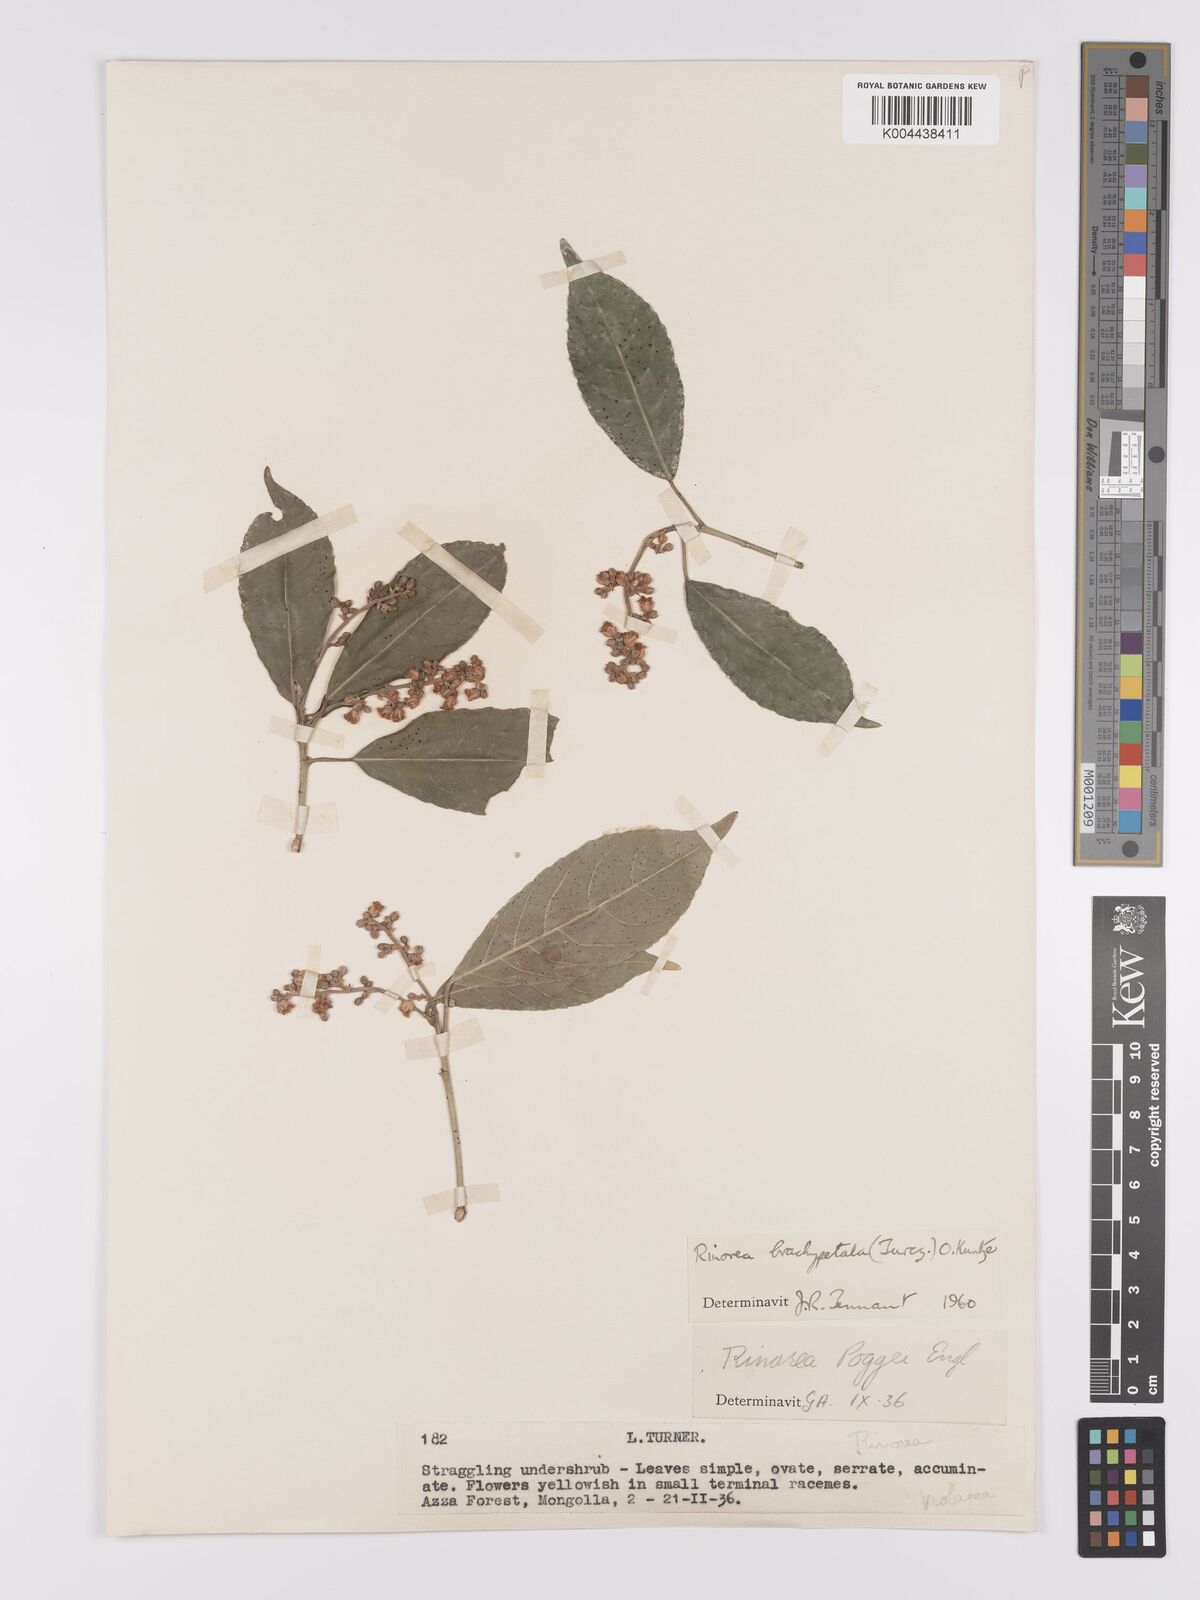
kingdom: Plantae
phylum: Tracheophyta
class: Magnoliopsida
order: Malpighiales
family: Violaceae
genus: Rinorea
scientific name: Rinorea brachypetala
